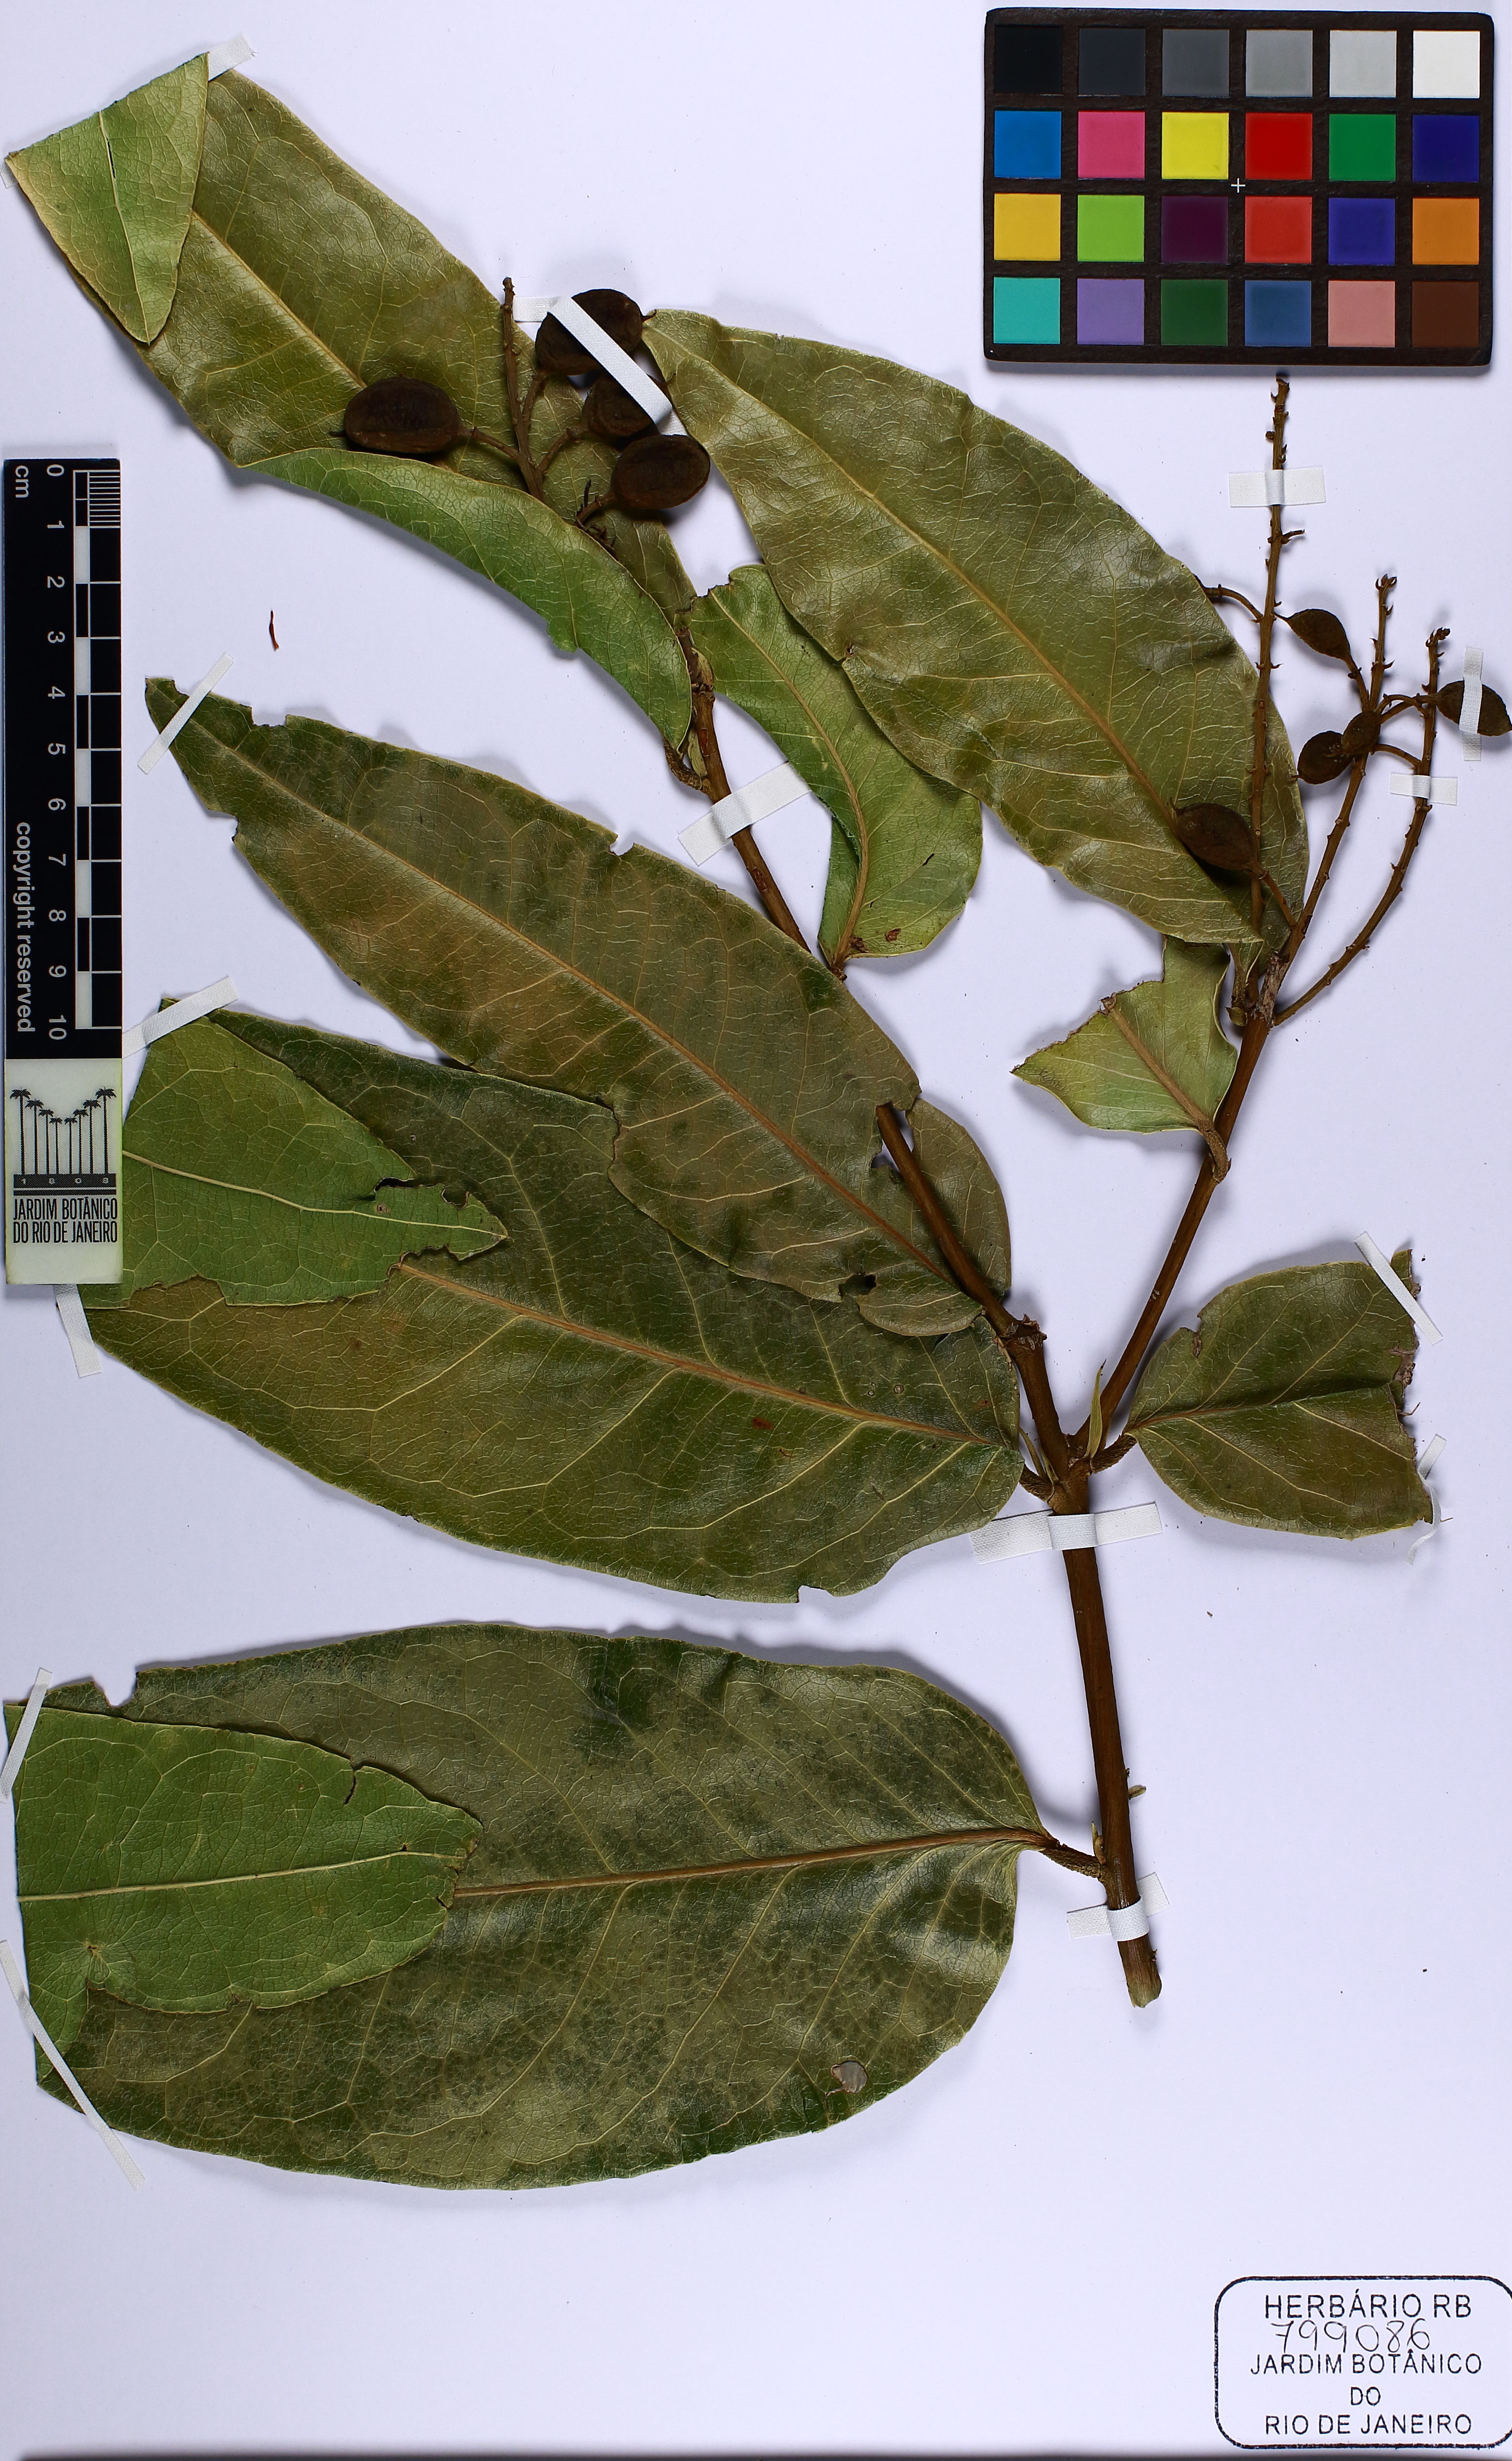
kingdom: Plantae
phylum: Tracheophyta
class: Magnoliopsida
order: Fabales
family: Fabaceae
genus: Zollernia
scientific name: Zollernia
